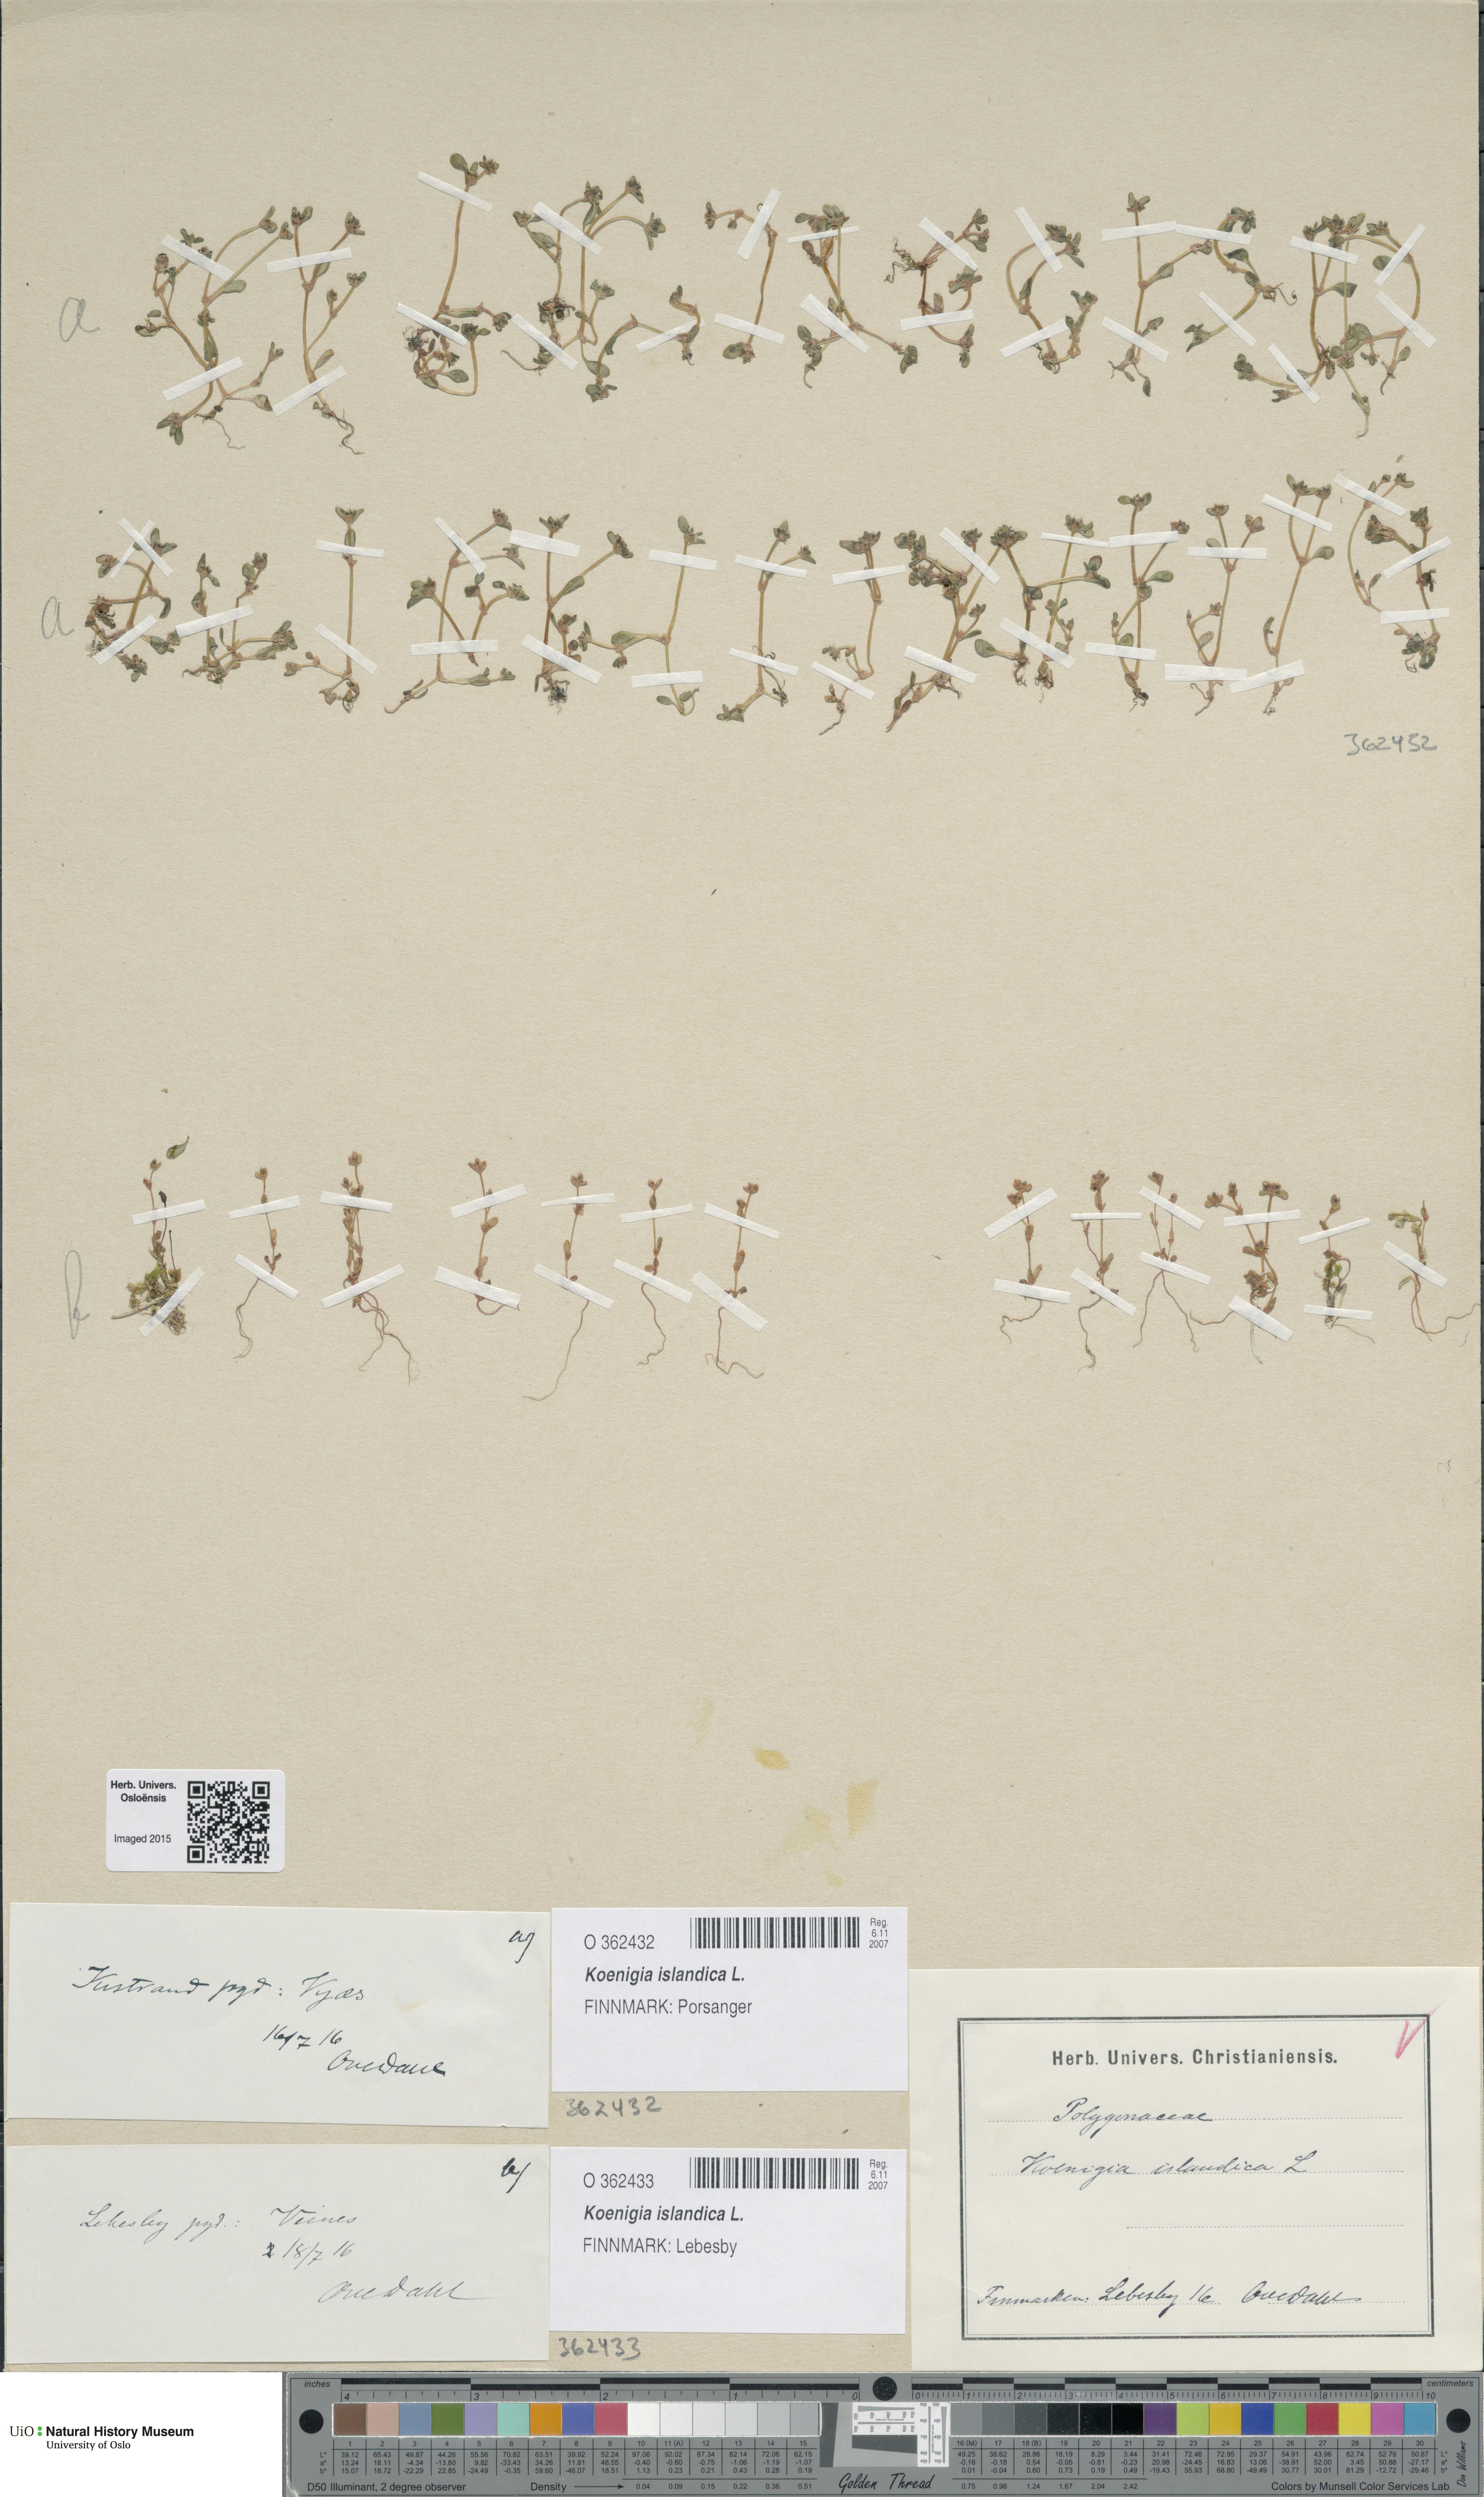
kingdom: Plantae
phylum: Tracheophyta
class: Magnoliopsida
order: Caryophyllales
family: Polygonaceae
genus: Koenigia
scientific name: Koenigia islandica
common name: Iceland-purslane
